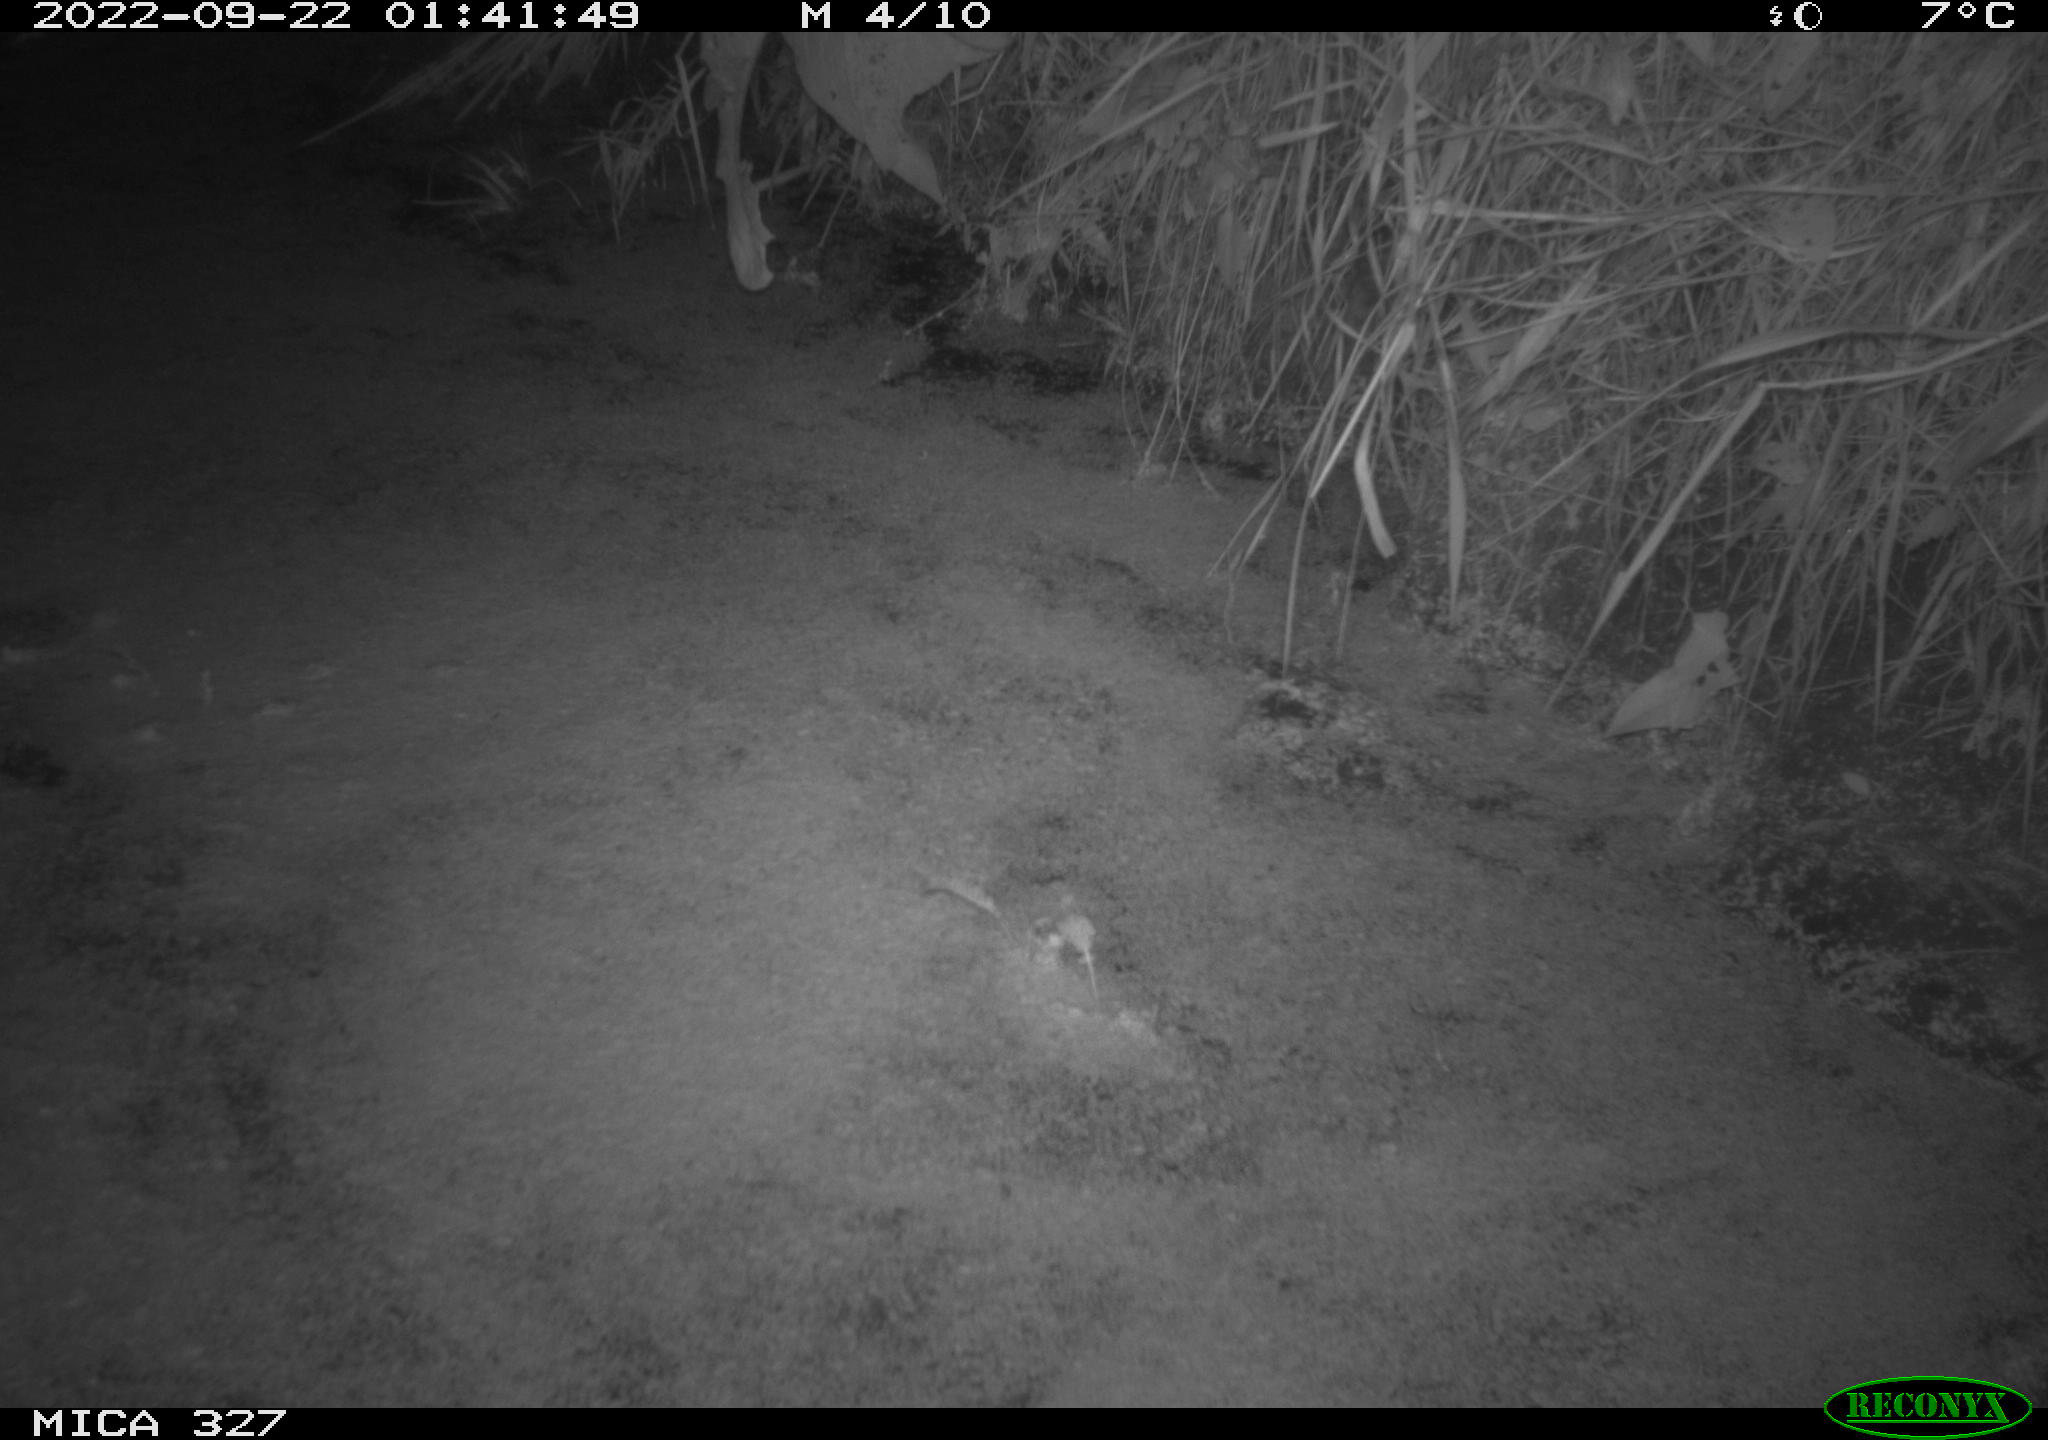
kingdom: Animalia
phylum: Chordata
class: Mammalia
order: Rodentia
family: Muridae
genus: Rattus
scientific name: Rattus norvegicus
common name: Brown rat
